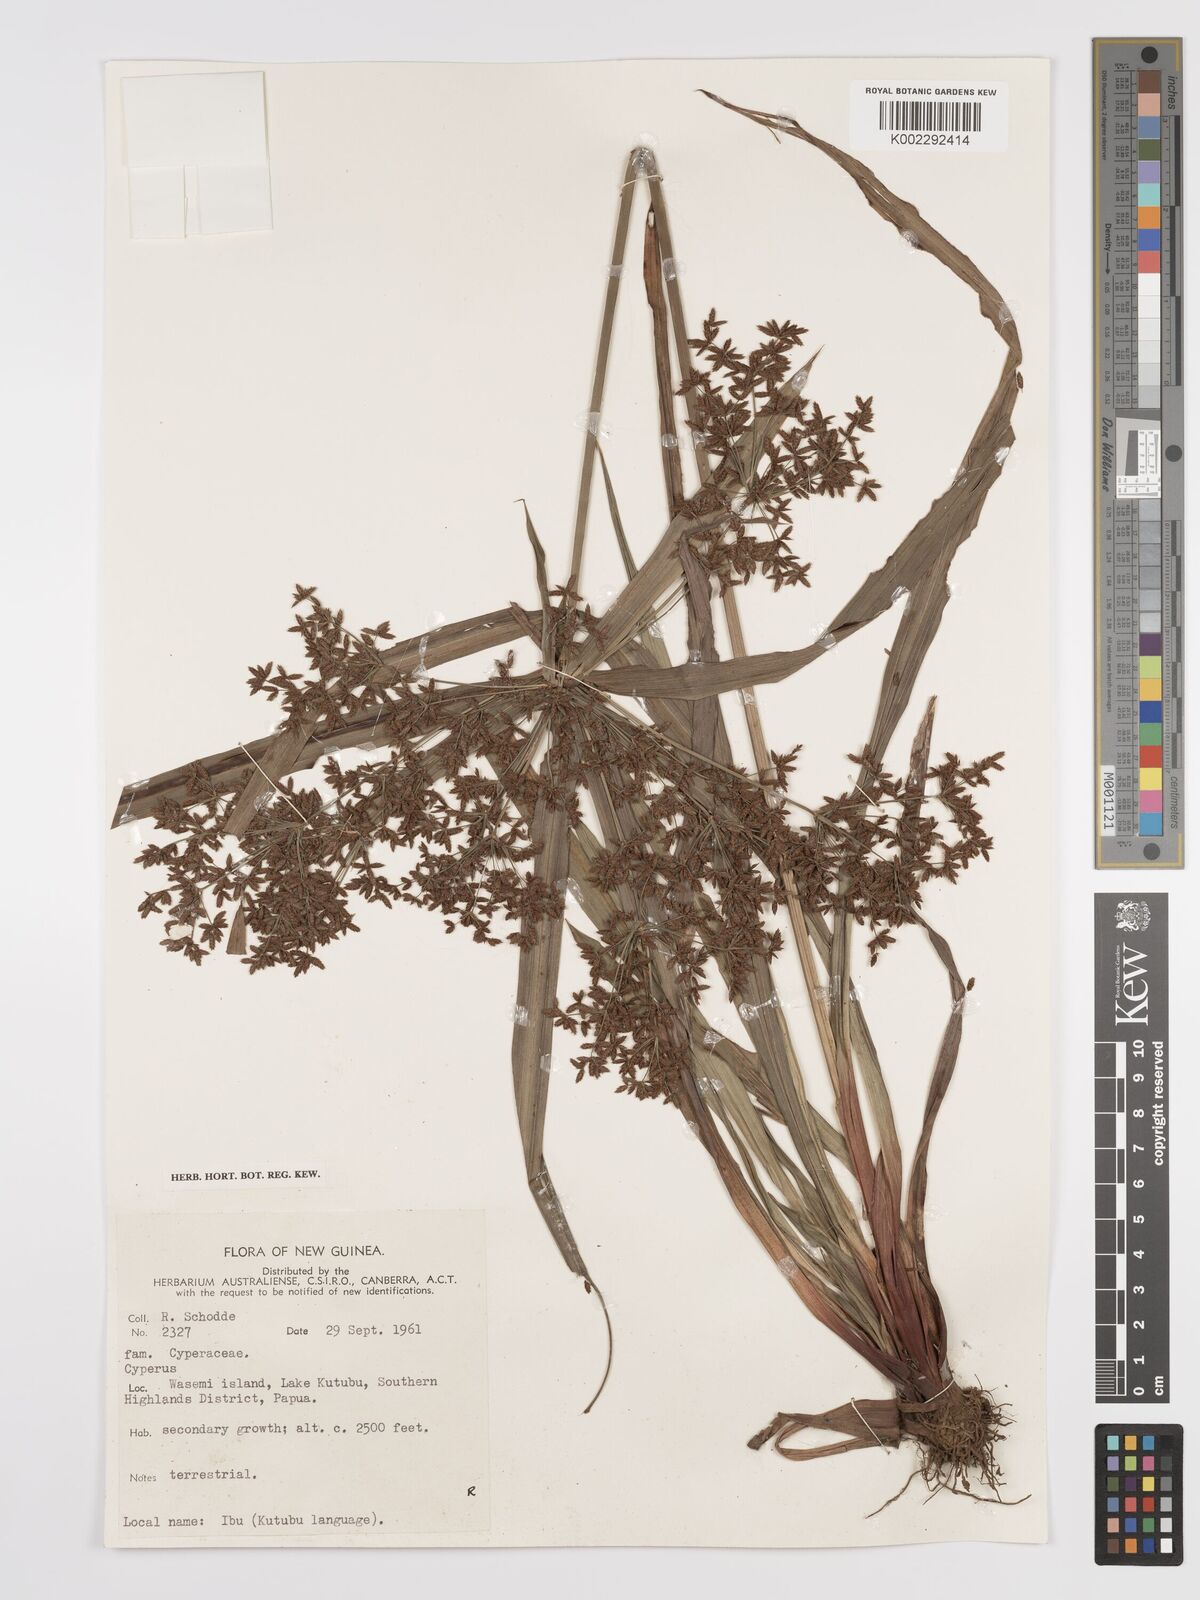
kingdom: Plantae
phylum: Tracheophyta
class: Liliopsida
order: Poales
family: Cyperaceae
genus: Cyperus
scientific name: Cyperus diffusus
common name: Dwarf umbrella grass
